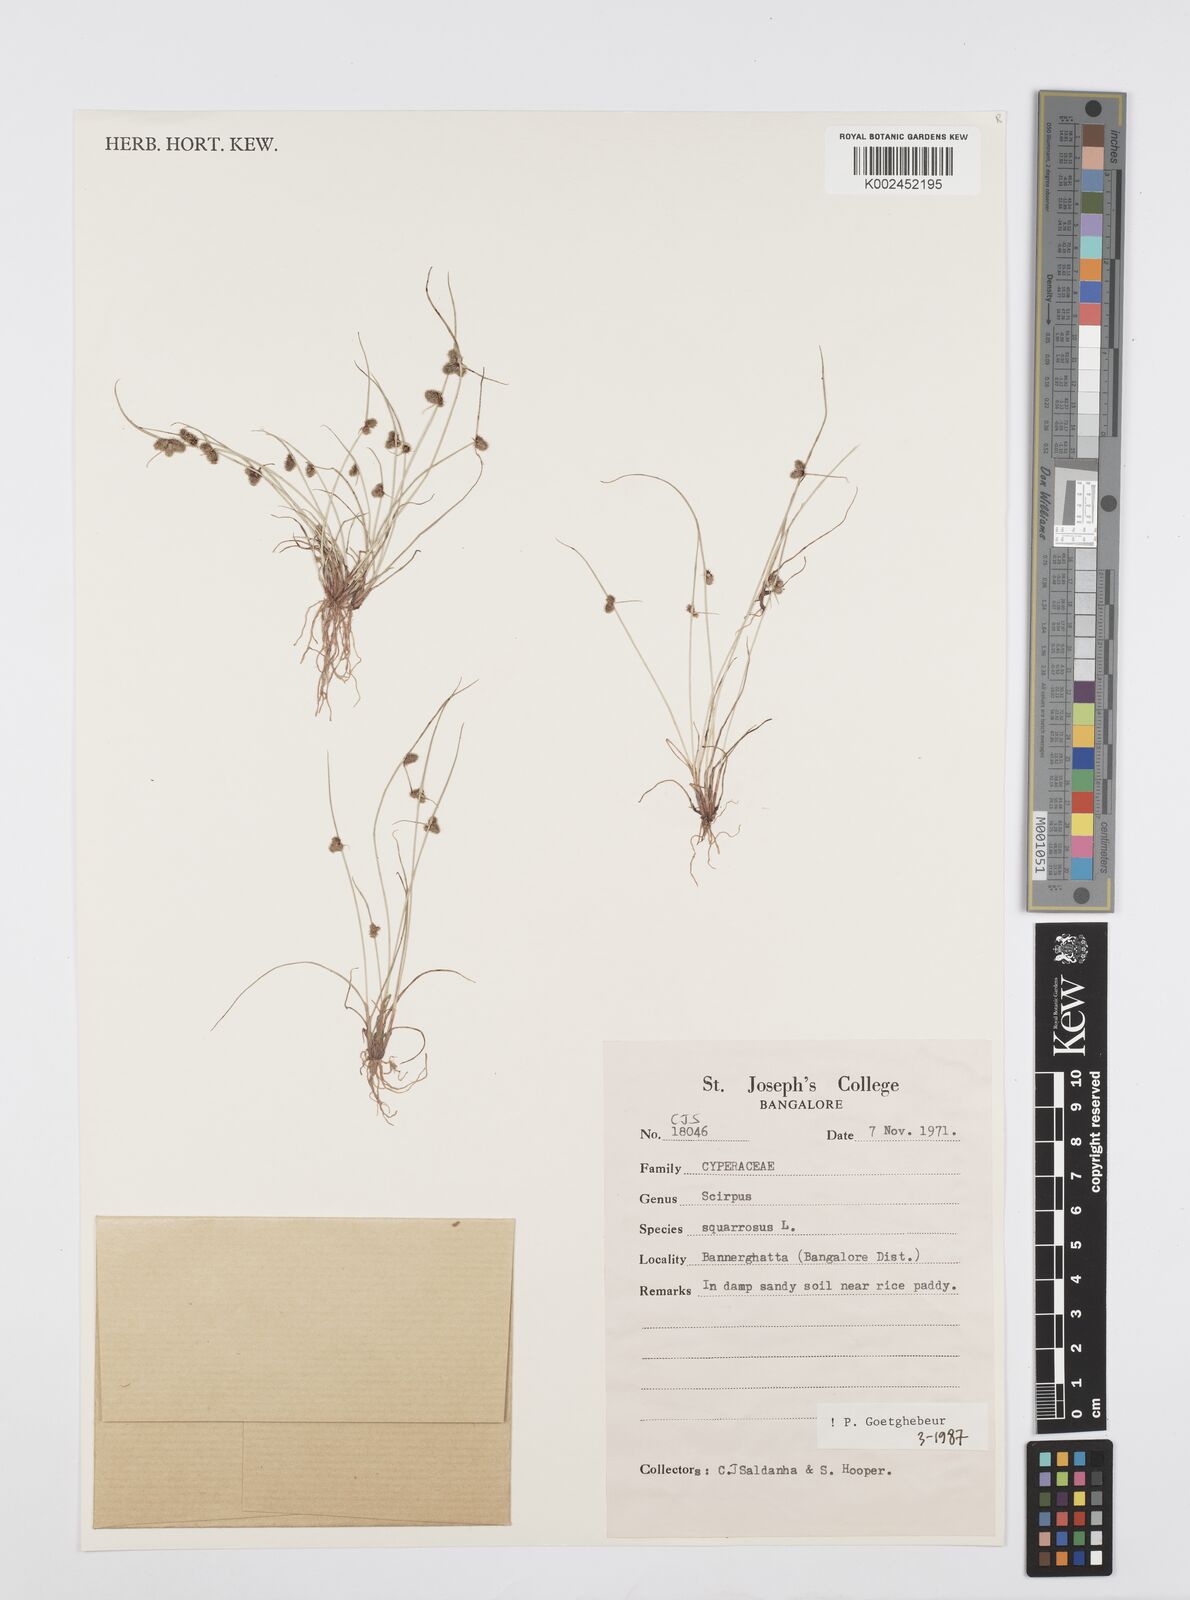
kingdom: Plantae
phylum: Tracheophyta
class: Liliopsida
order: Poales
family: Cyperaceae
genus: Cyperus
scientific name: Cyperus squarrosus
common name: Awned cyperus
